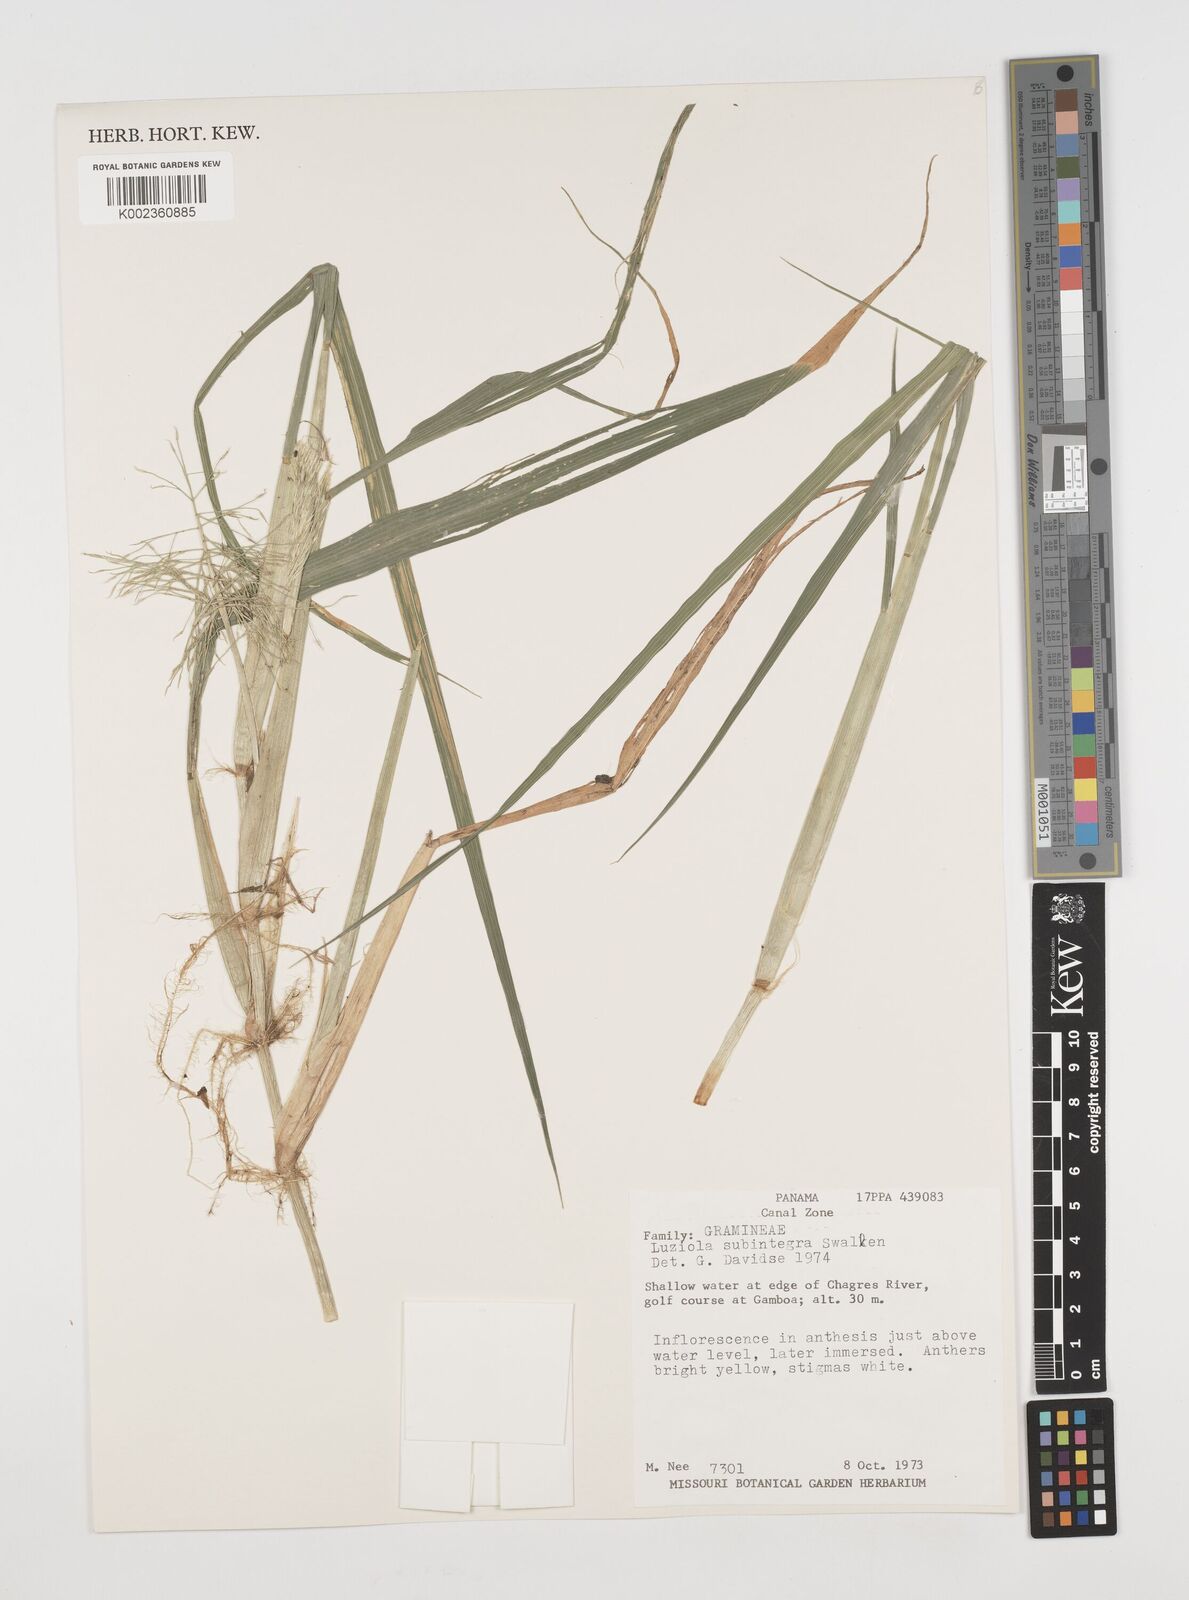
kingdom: Plantae
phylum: Tracheophyta
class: Liliopsida
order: Poales
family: Poaceae
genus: Luziola
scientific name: Luziola subintegra
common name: Large watergrass
